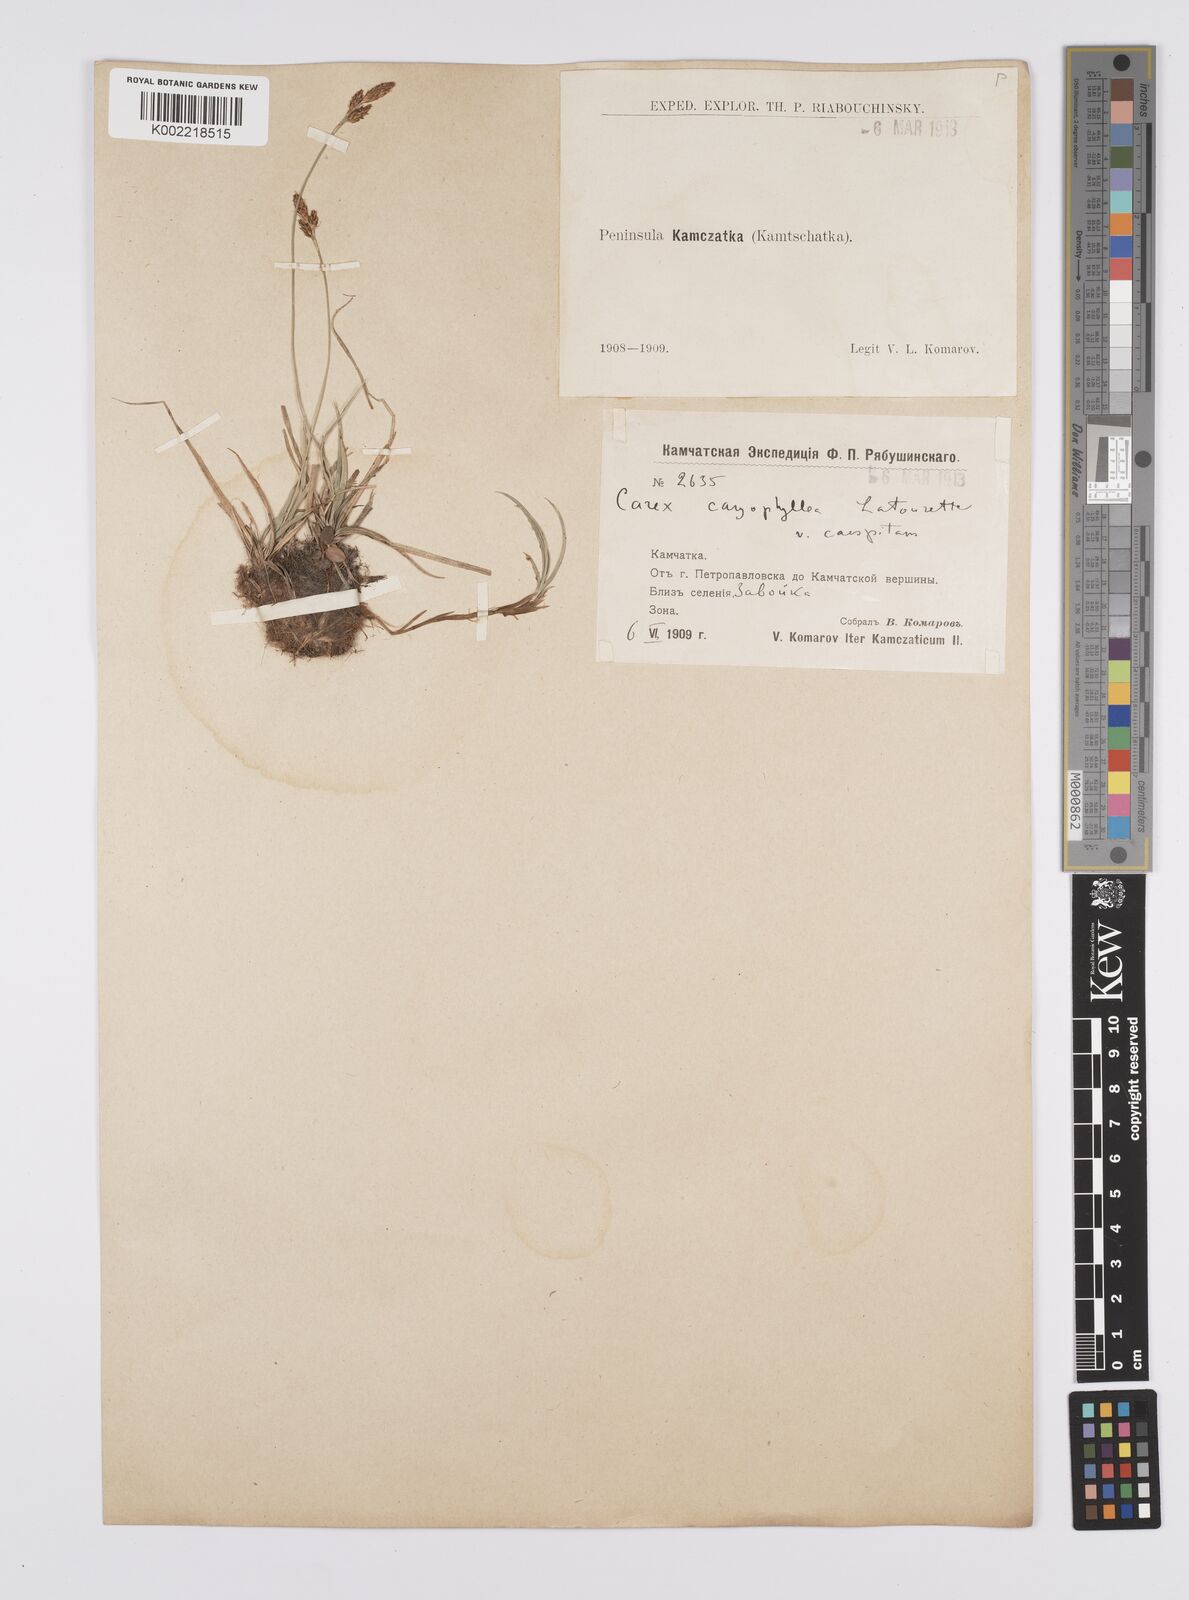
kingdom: Plantae
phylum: Tracheophyta
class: Liliopsida
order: Poales
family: Cyperaceae
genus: Carex
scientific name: Carex caryophyllea
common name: Spring sedge
